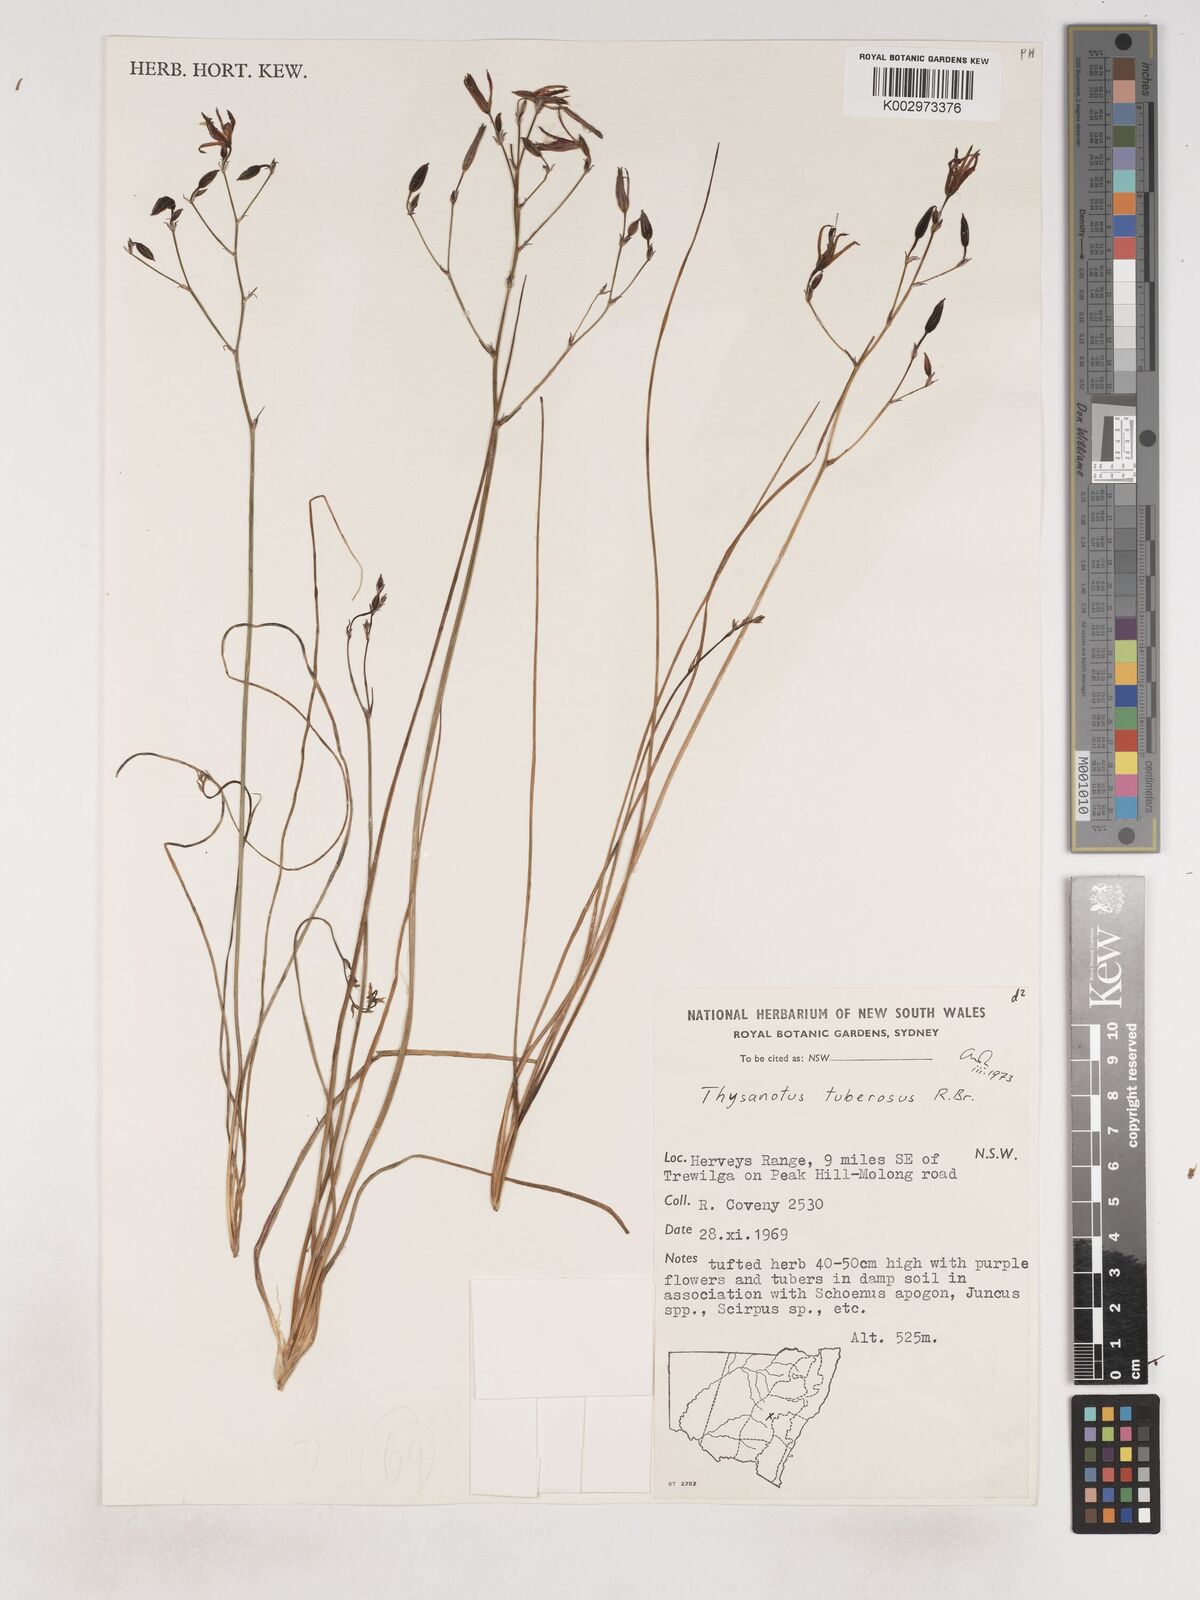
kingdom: Plantae
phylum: Tracheophyta
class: Liliopsida
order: Asparagales
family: Asparagaceae
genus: Thysanotus
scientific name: Thysanotus tuberosus
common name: Common fringed-lily
